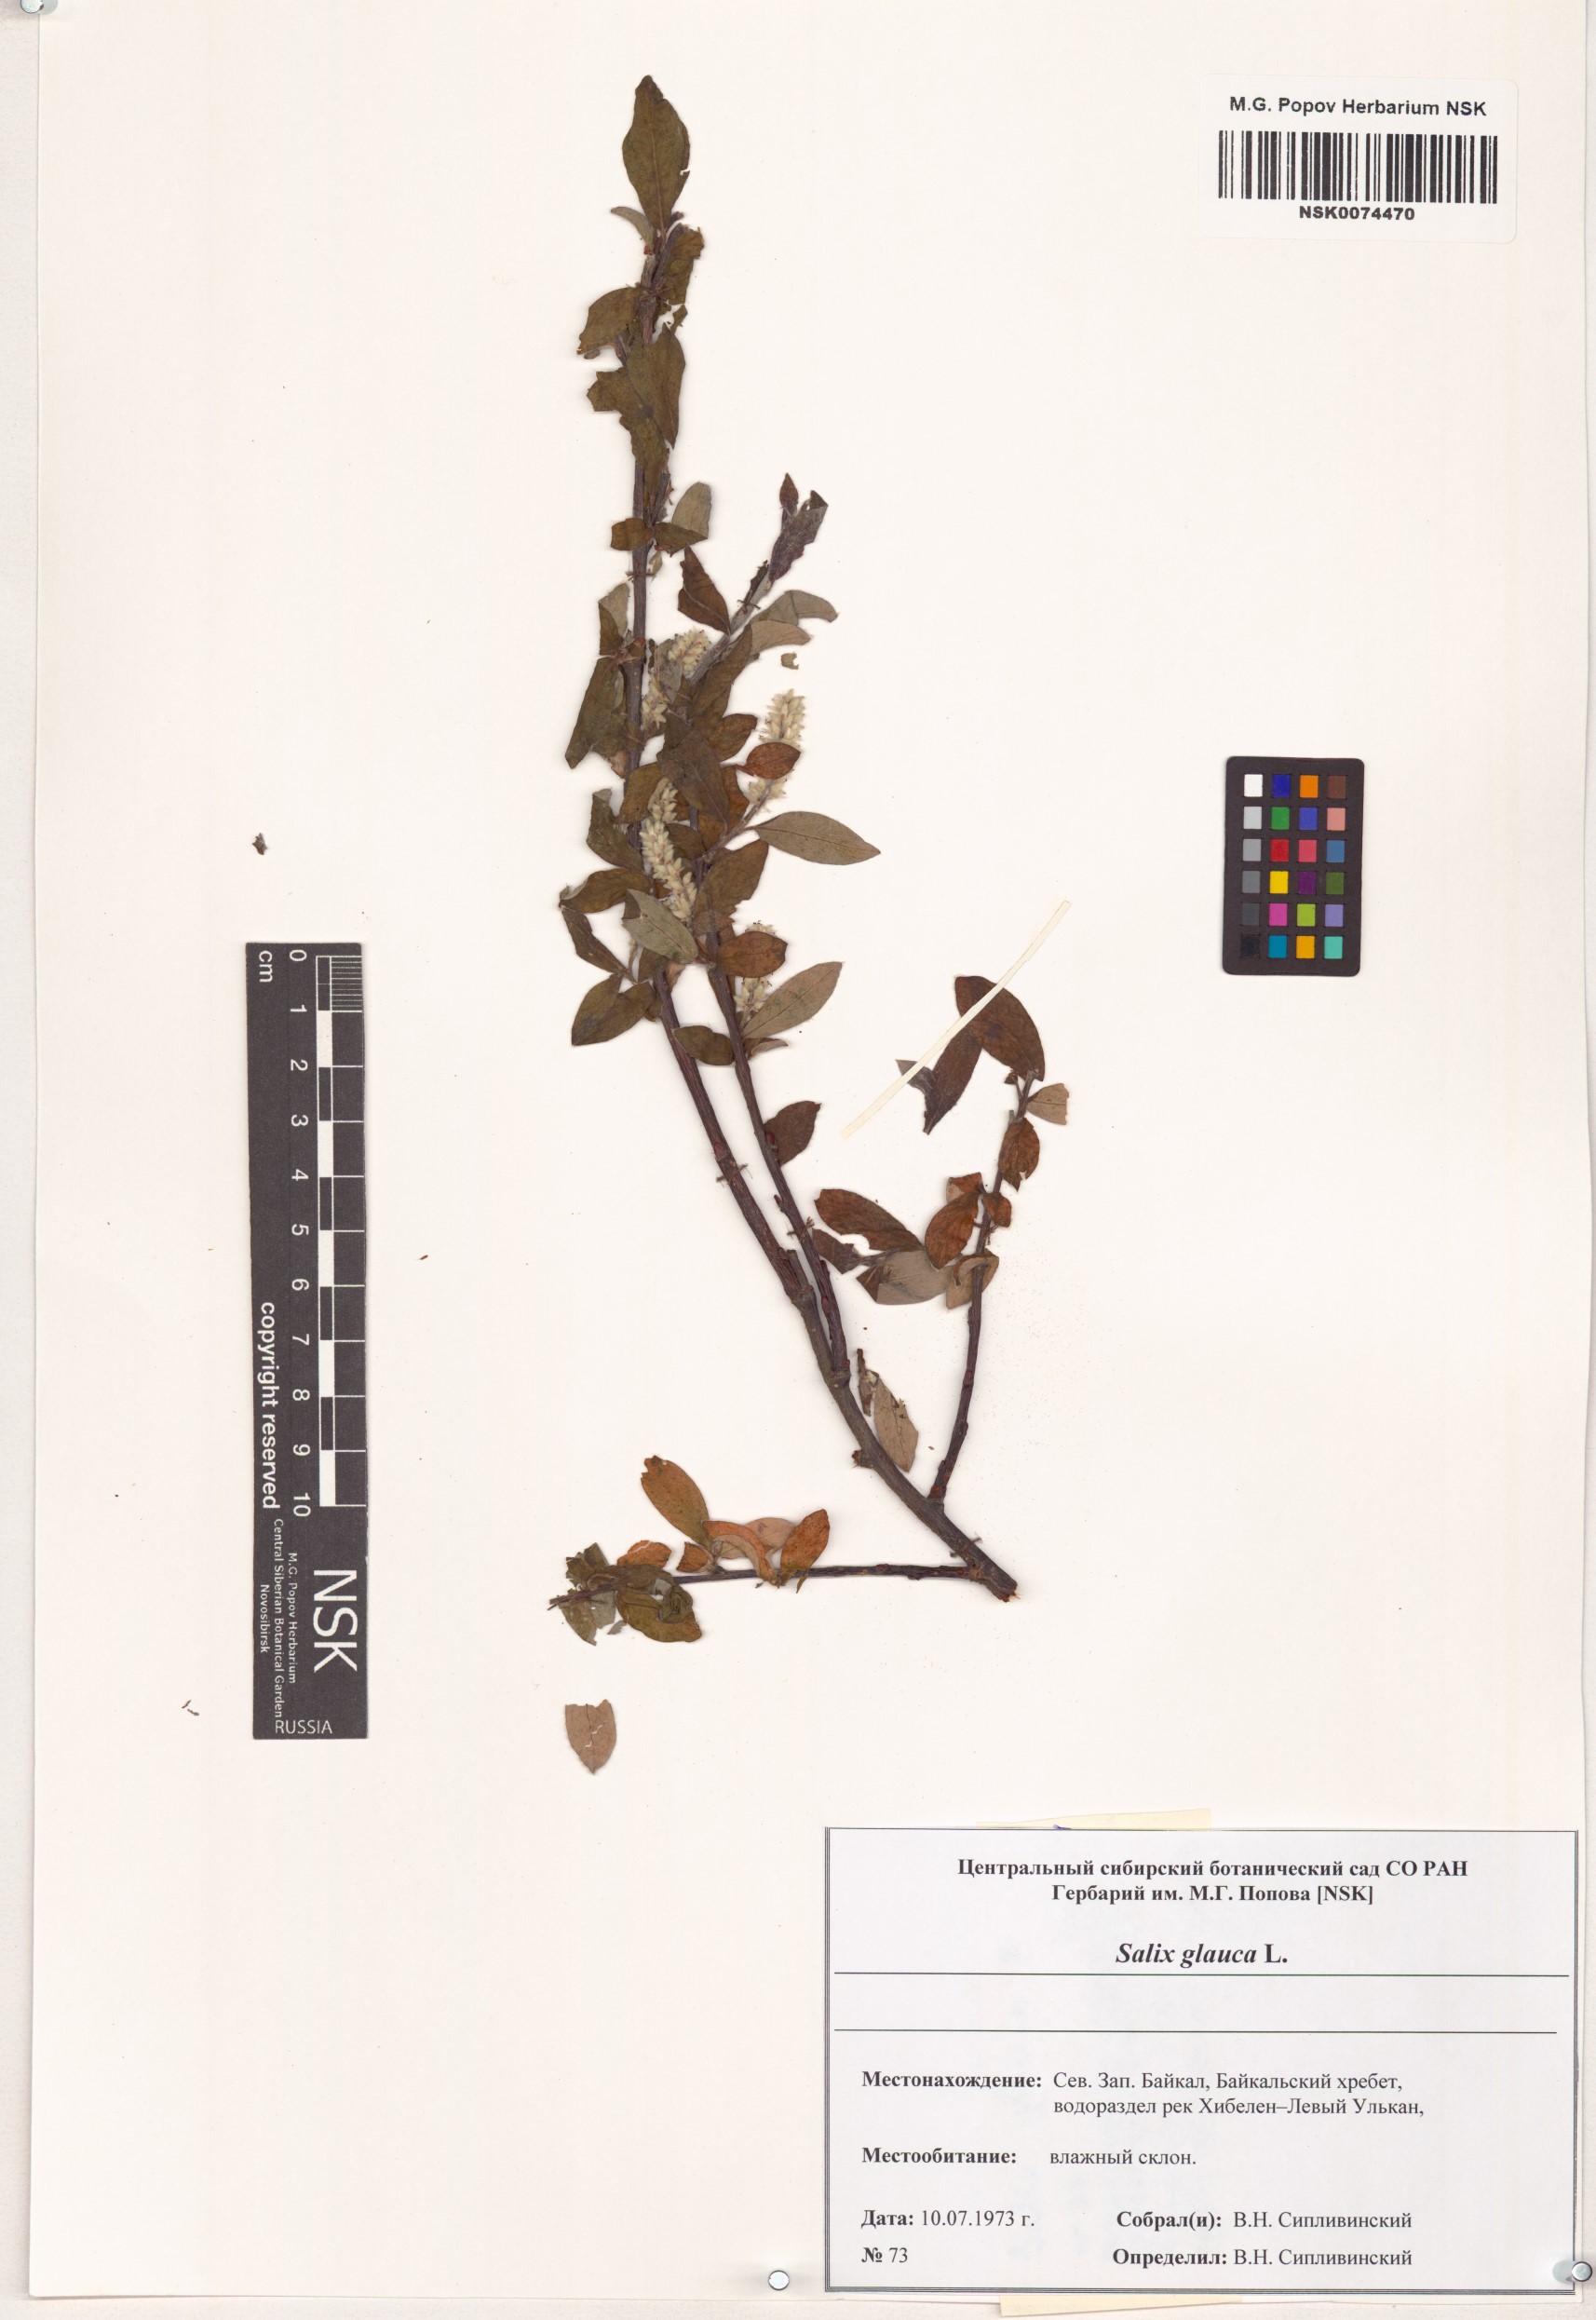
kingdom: Plantae
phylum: Tracheophyta
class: Magnoliopsida
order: Malpighiales
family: Salicaceae
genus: Salix
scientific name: Salix glauca
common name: Glaucous willow
